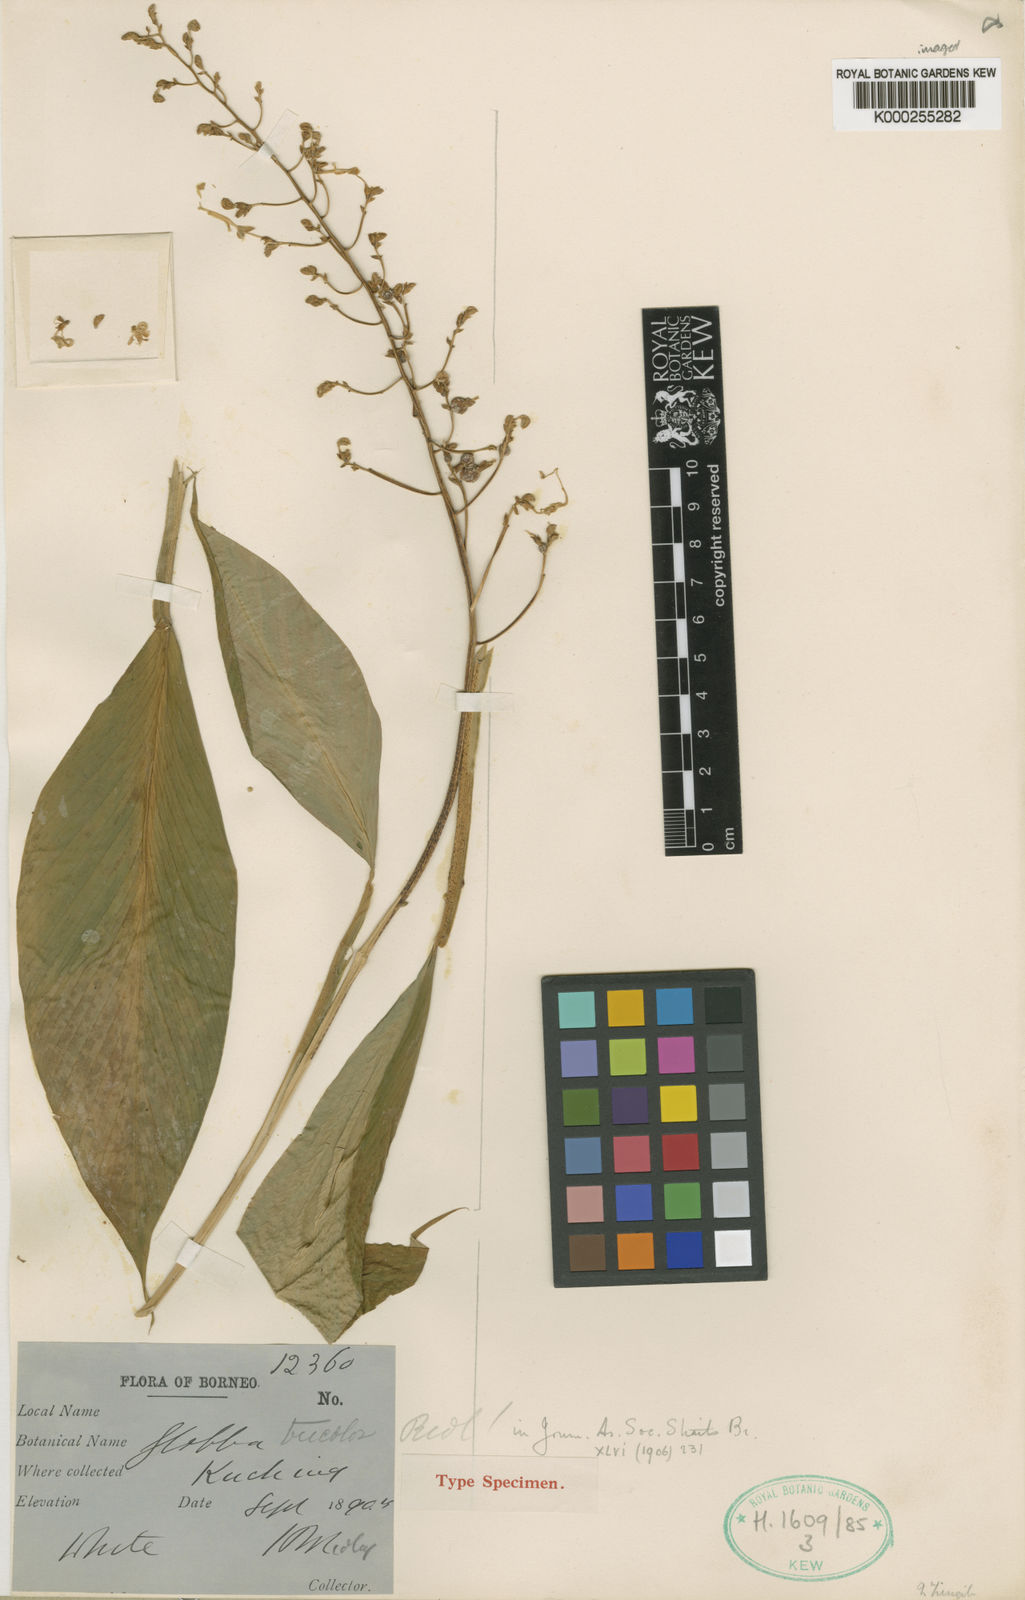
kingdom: Plantae
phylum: Tracheophyta
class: Liliopsida
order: Zingiberales
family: Zingiberaceae
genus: Globba
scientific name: Globba tricolor
